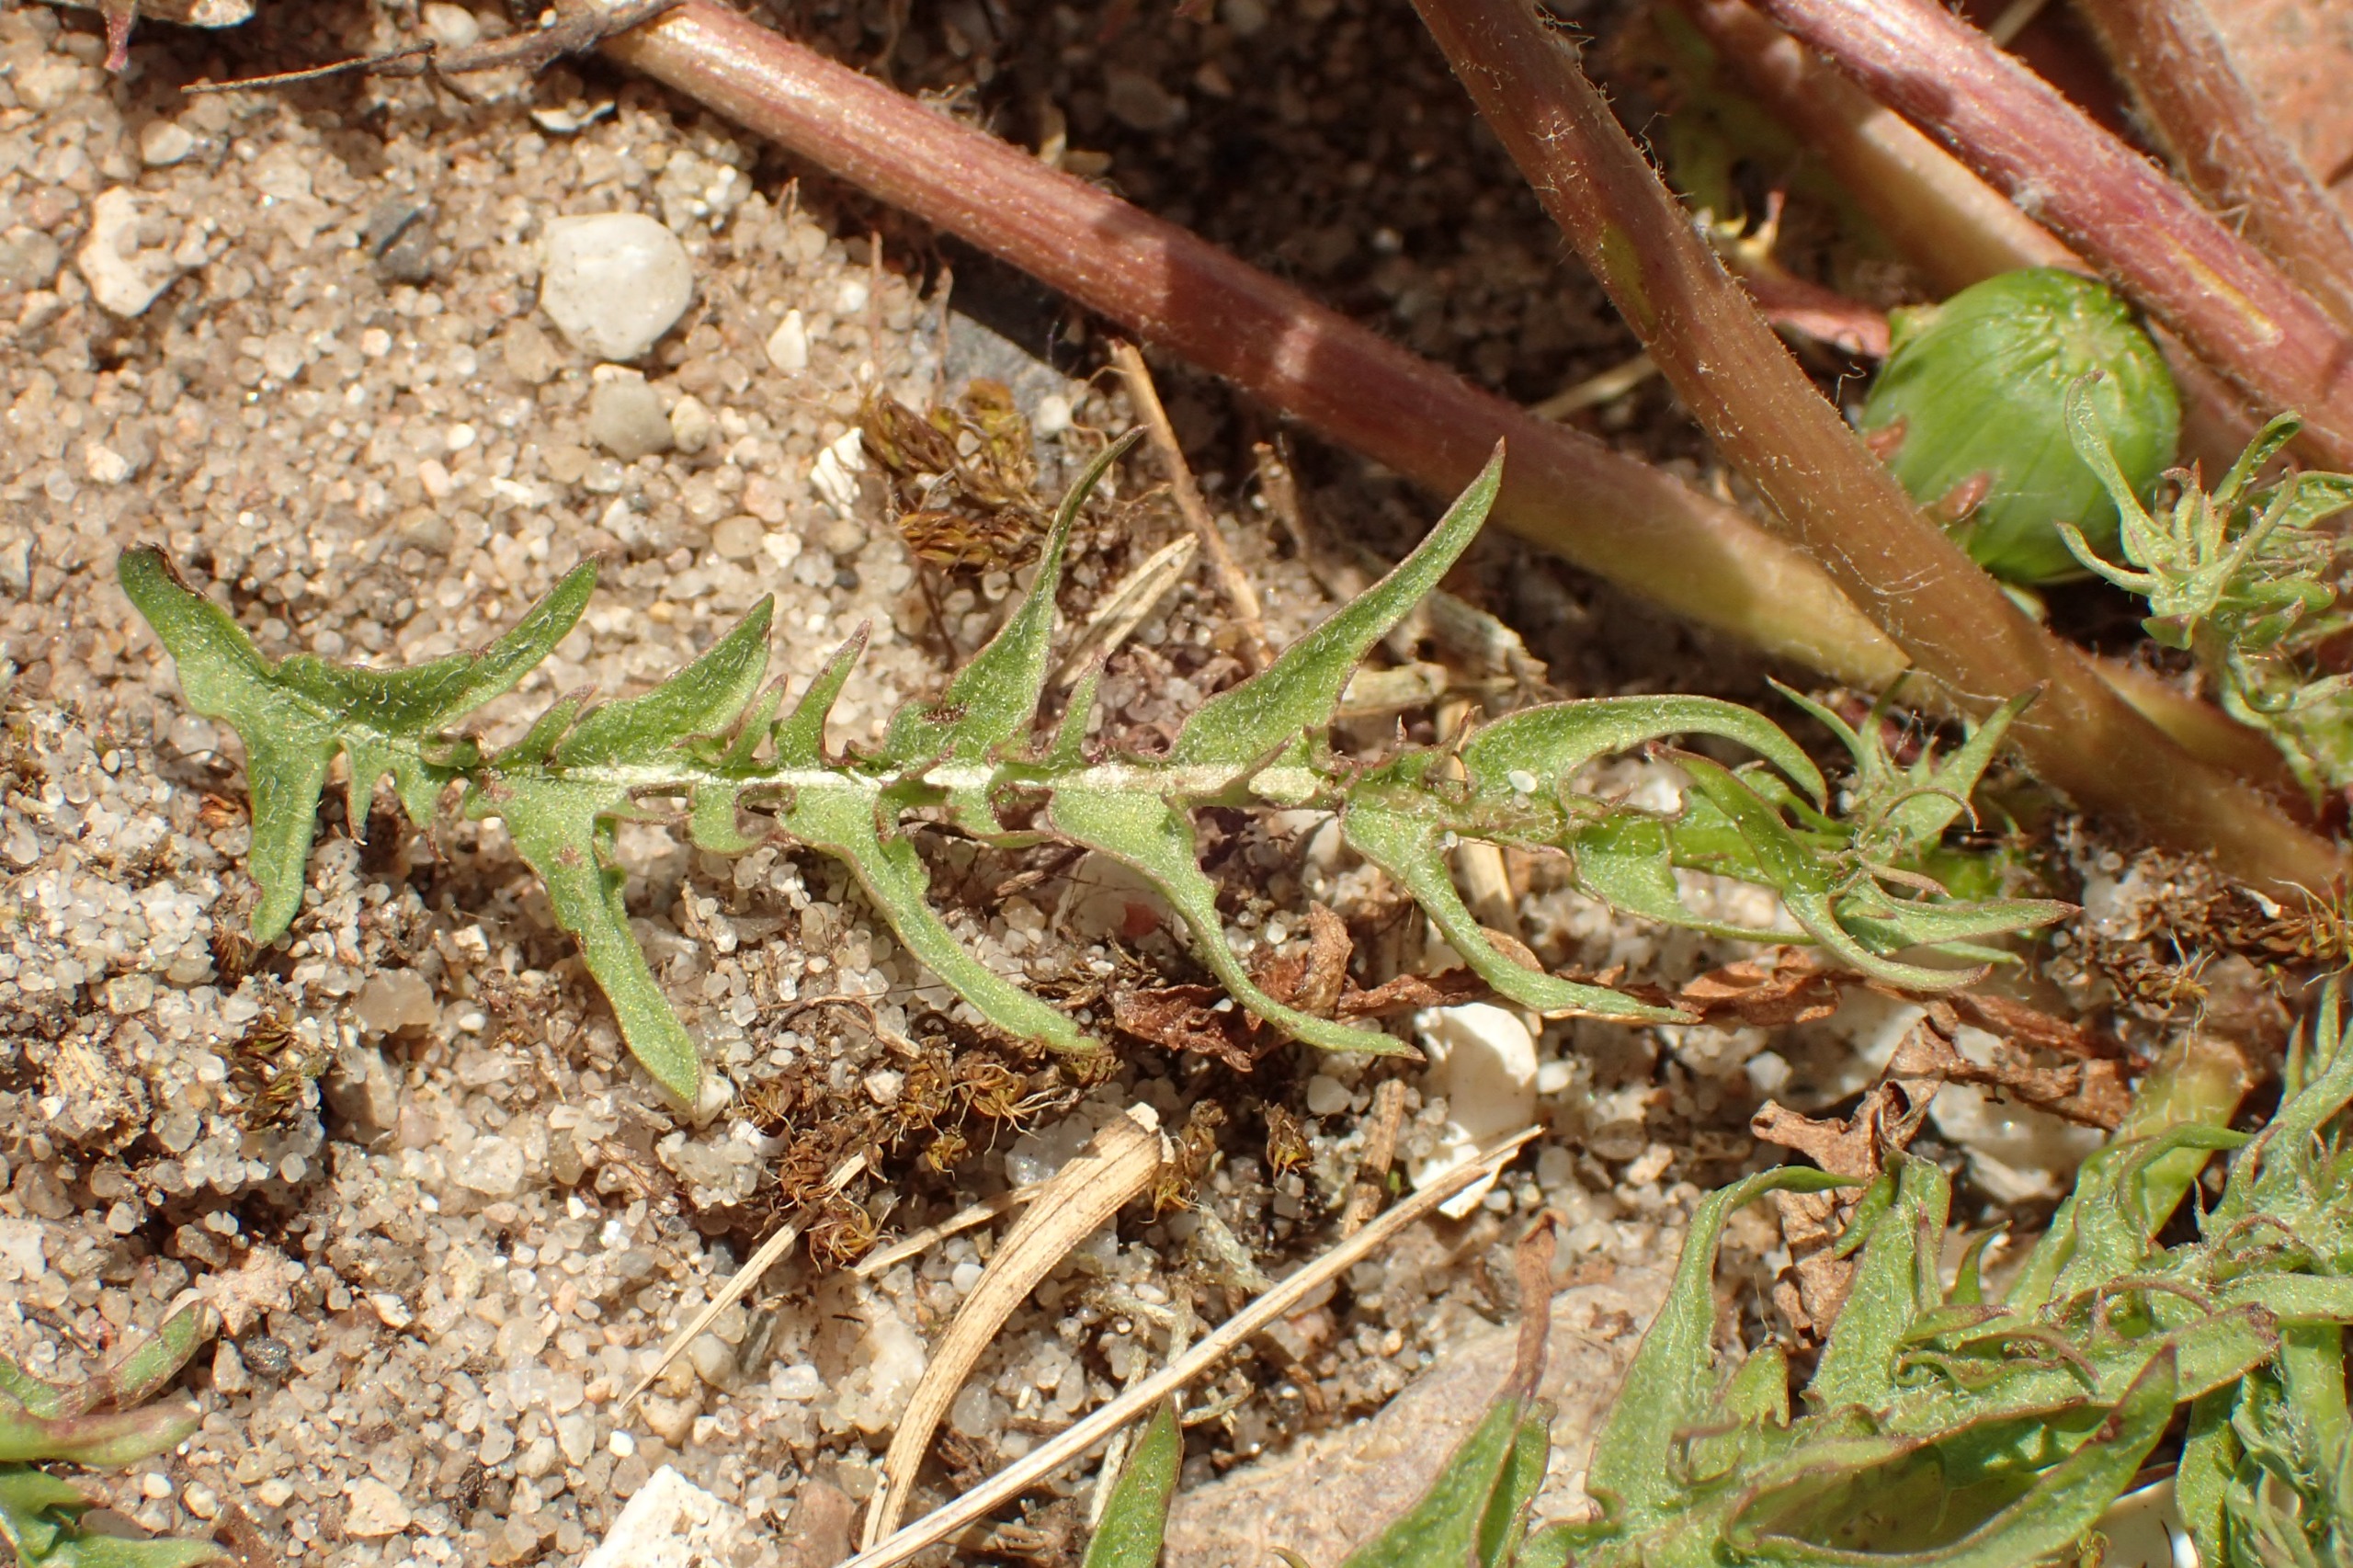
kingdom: Plantae
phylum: Tracheophyta
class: Magnoliopsida
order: Asterales
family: Asteraceae
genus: Taraxacum
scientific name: Taraxacum platyglossum
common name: Fladtunge-dværgmælkebøtte
